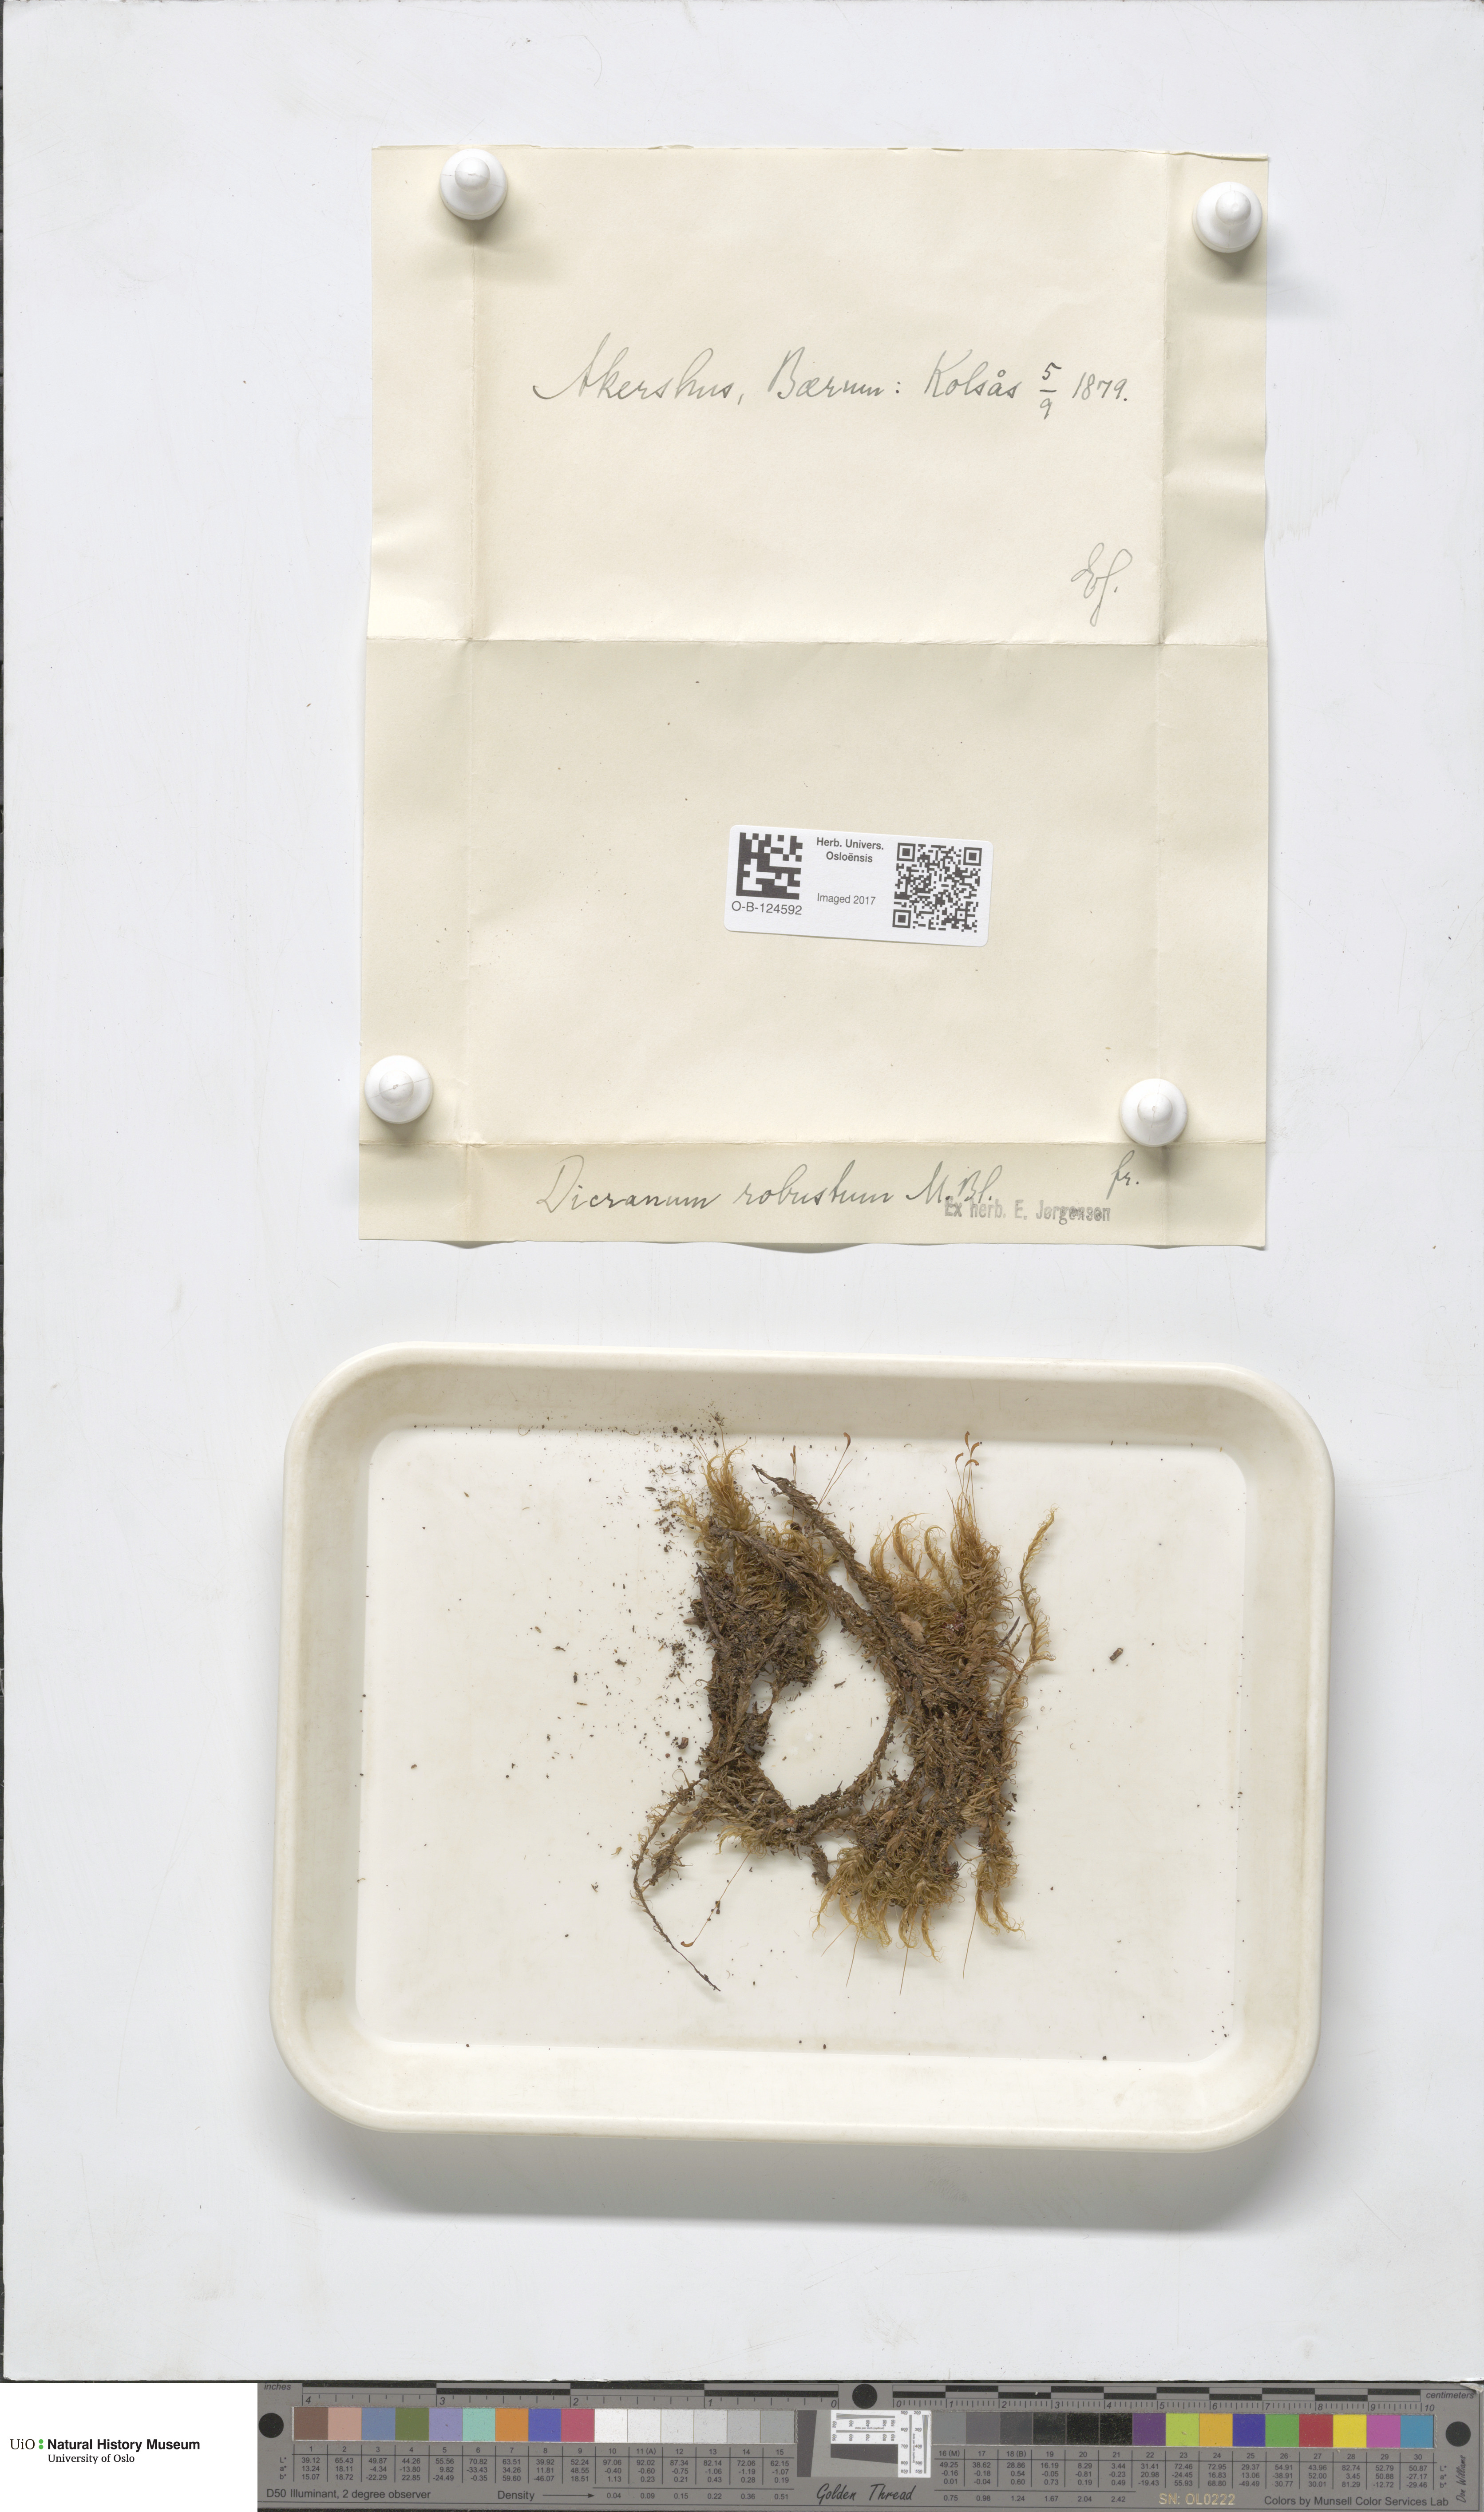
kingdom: Plantae
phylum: Bryophyta
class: Bryopsida
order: Dicranales
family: Dicranaceae
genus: Dicranum
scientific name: Dicranum drummondii
